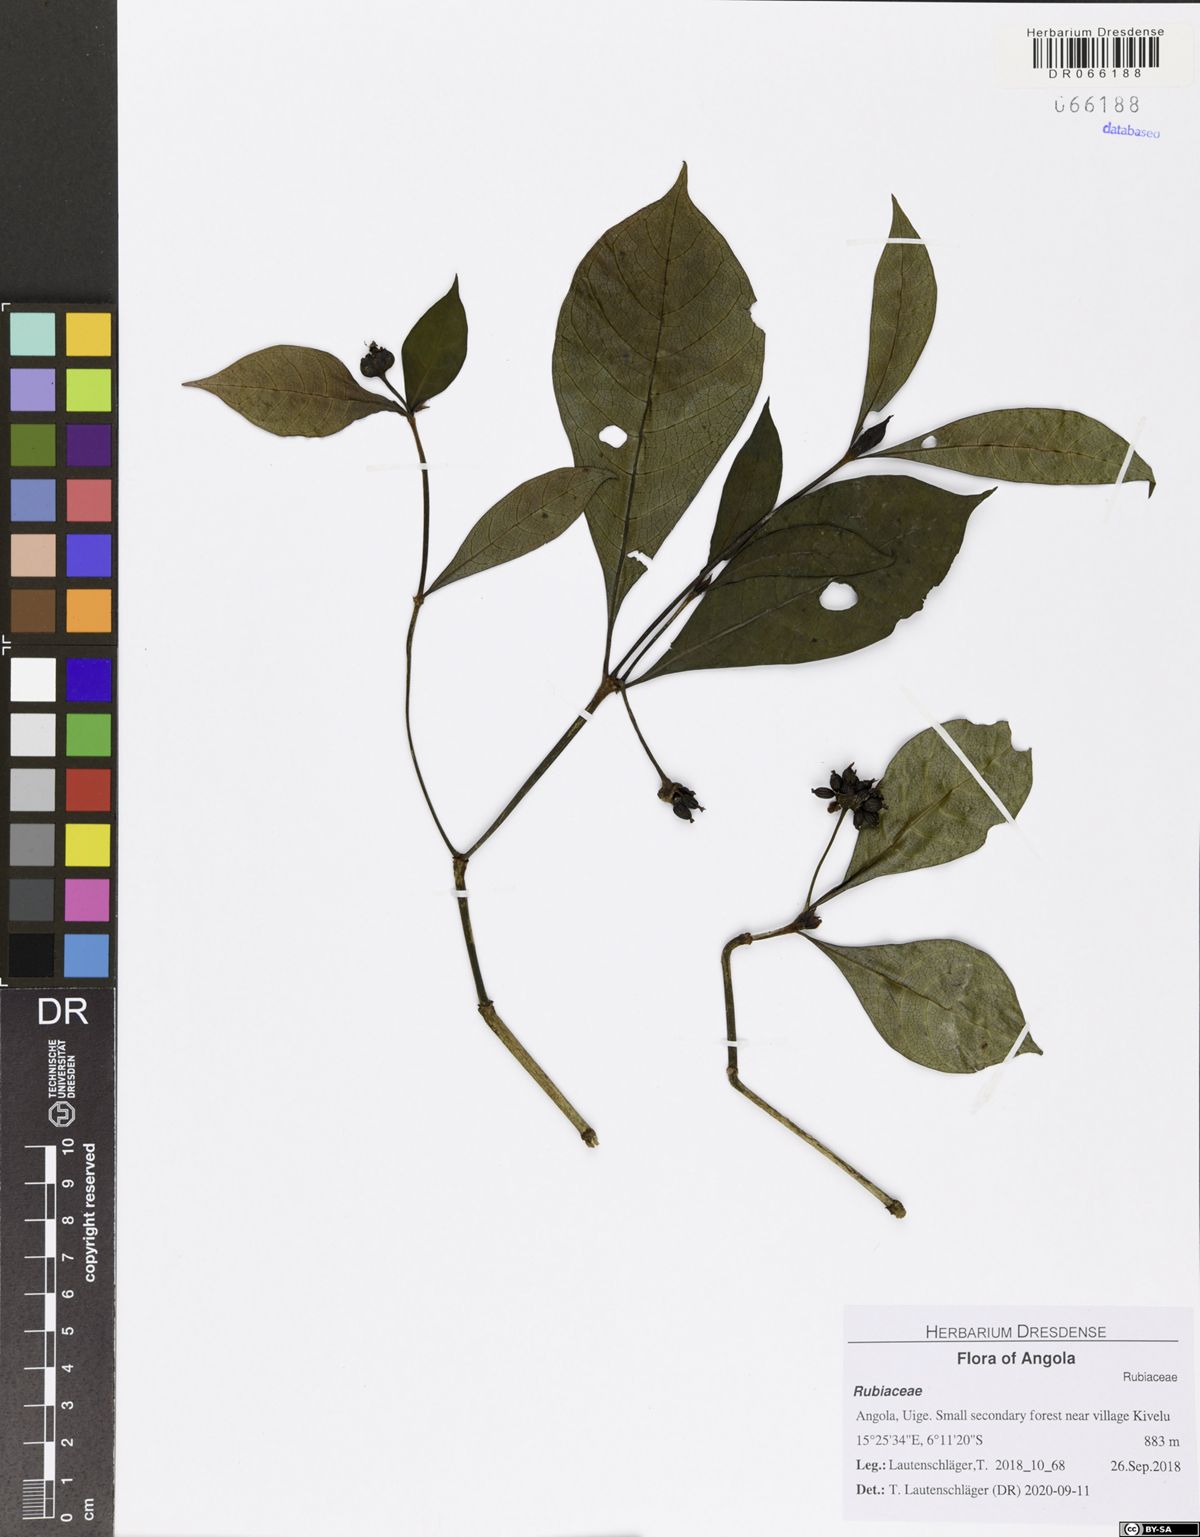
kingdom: Plantae
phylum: Tracheophyta
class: Magnoliopsida
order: Gentianales
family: Rubiaceae
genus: Psychotria
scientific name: Psychotria peduncularis
